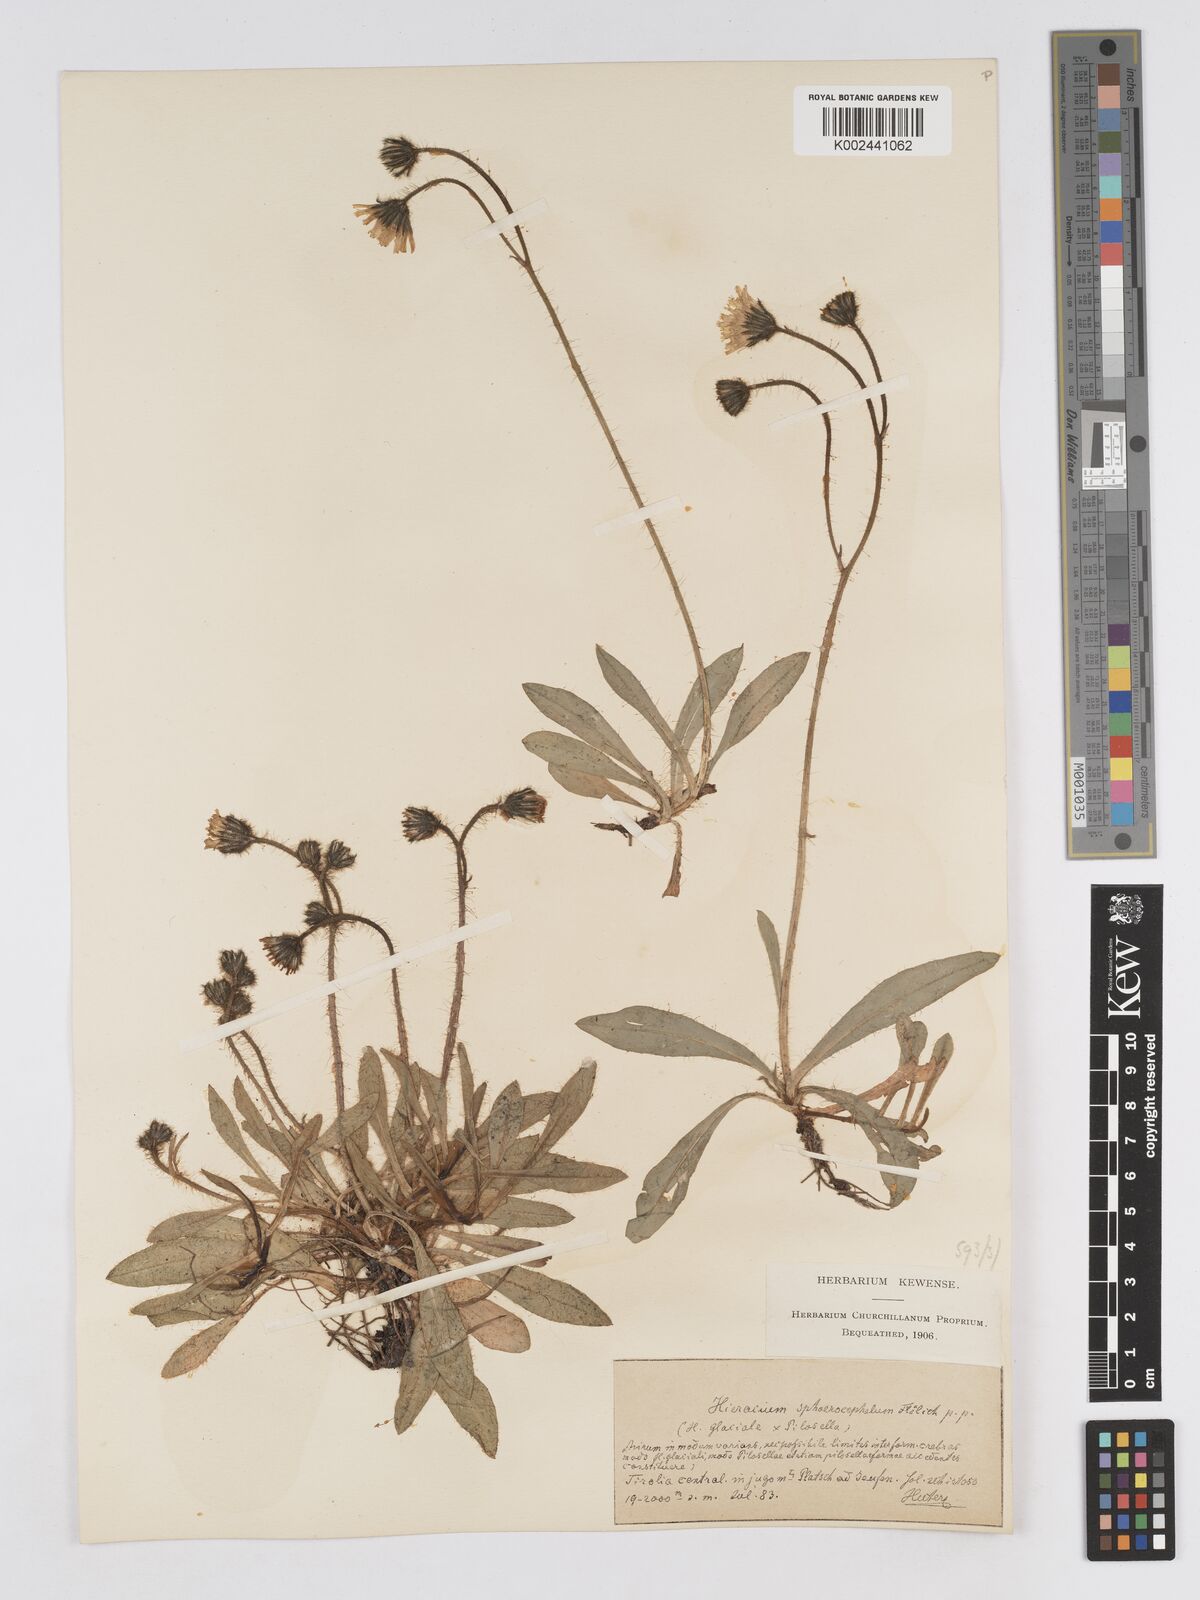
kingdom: Plantae
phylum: Tracheophyta
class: Magnoliopsida
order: Asterales
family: Asteraceae
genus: Pilosella
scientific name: Pilosella sphaerocephala
